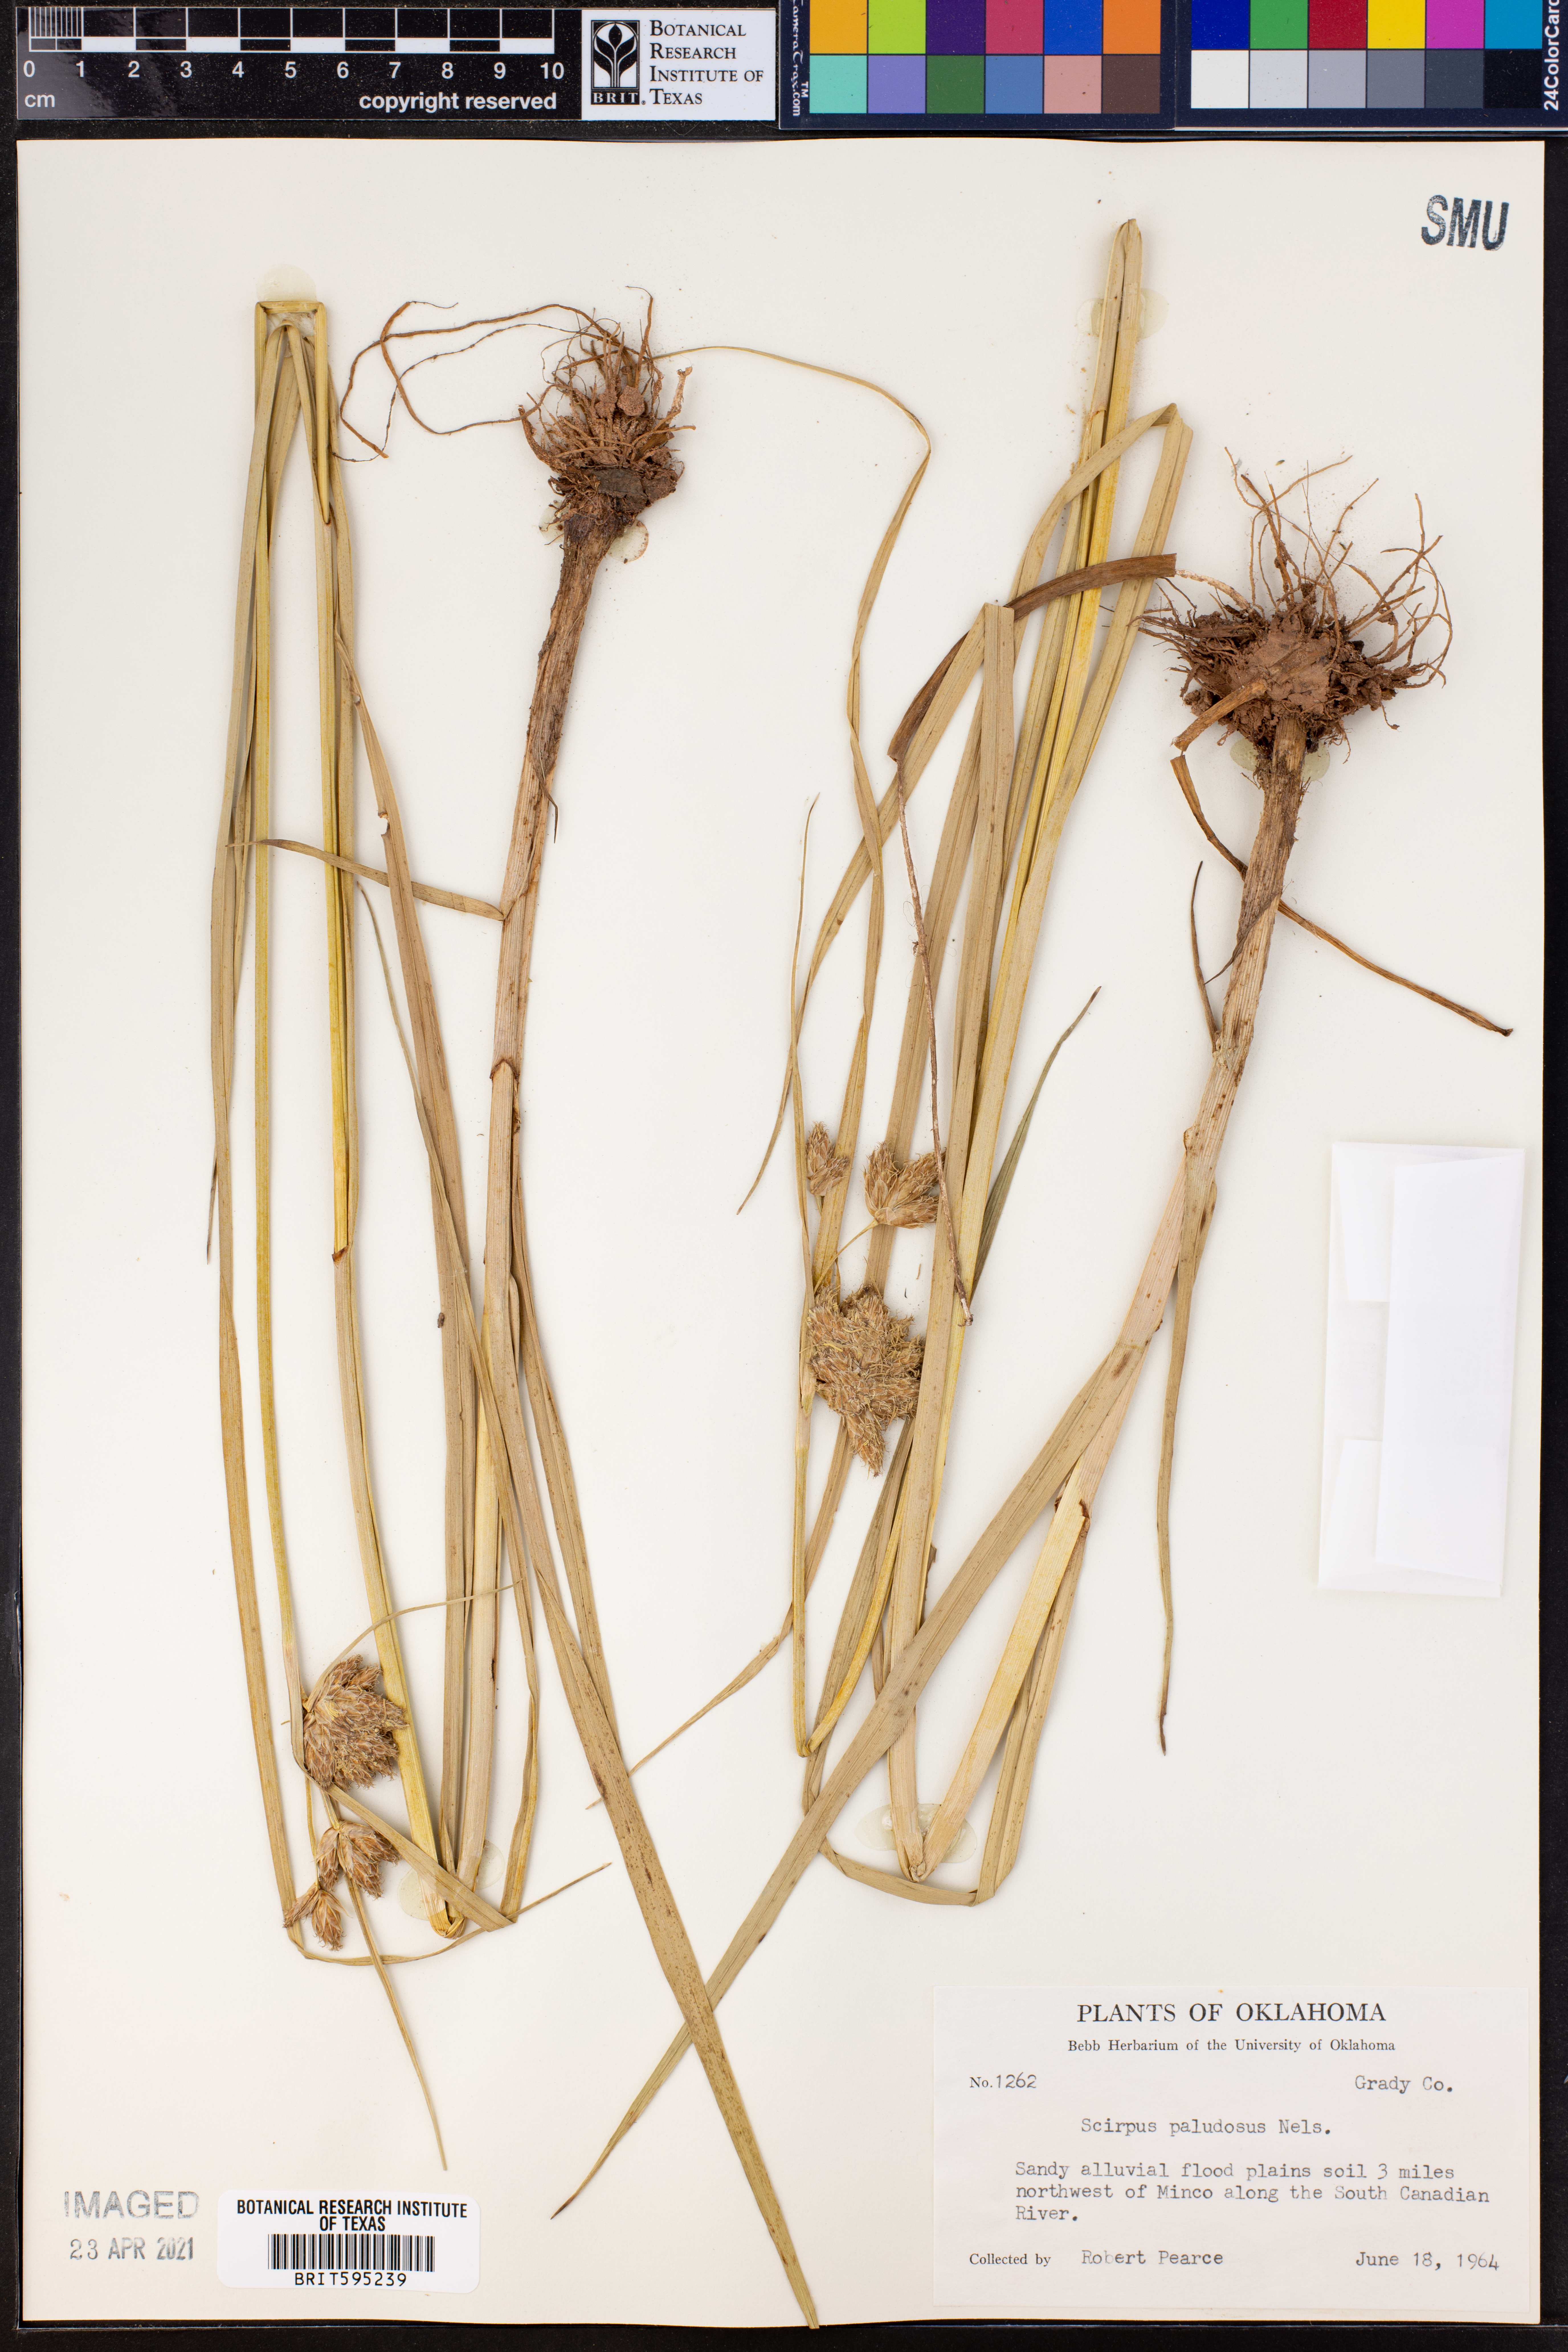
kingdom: Plantae
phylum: Tracheophyta
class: Liliopsida
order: Poales
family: Cyperaceae
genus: Bolboschoenus
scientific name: Bolboschoenus maritimus
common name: Sea club-rush
